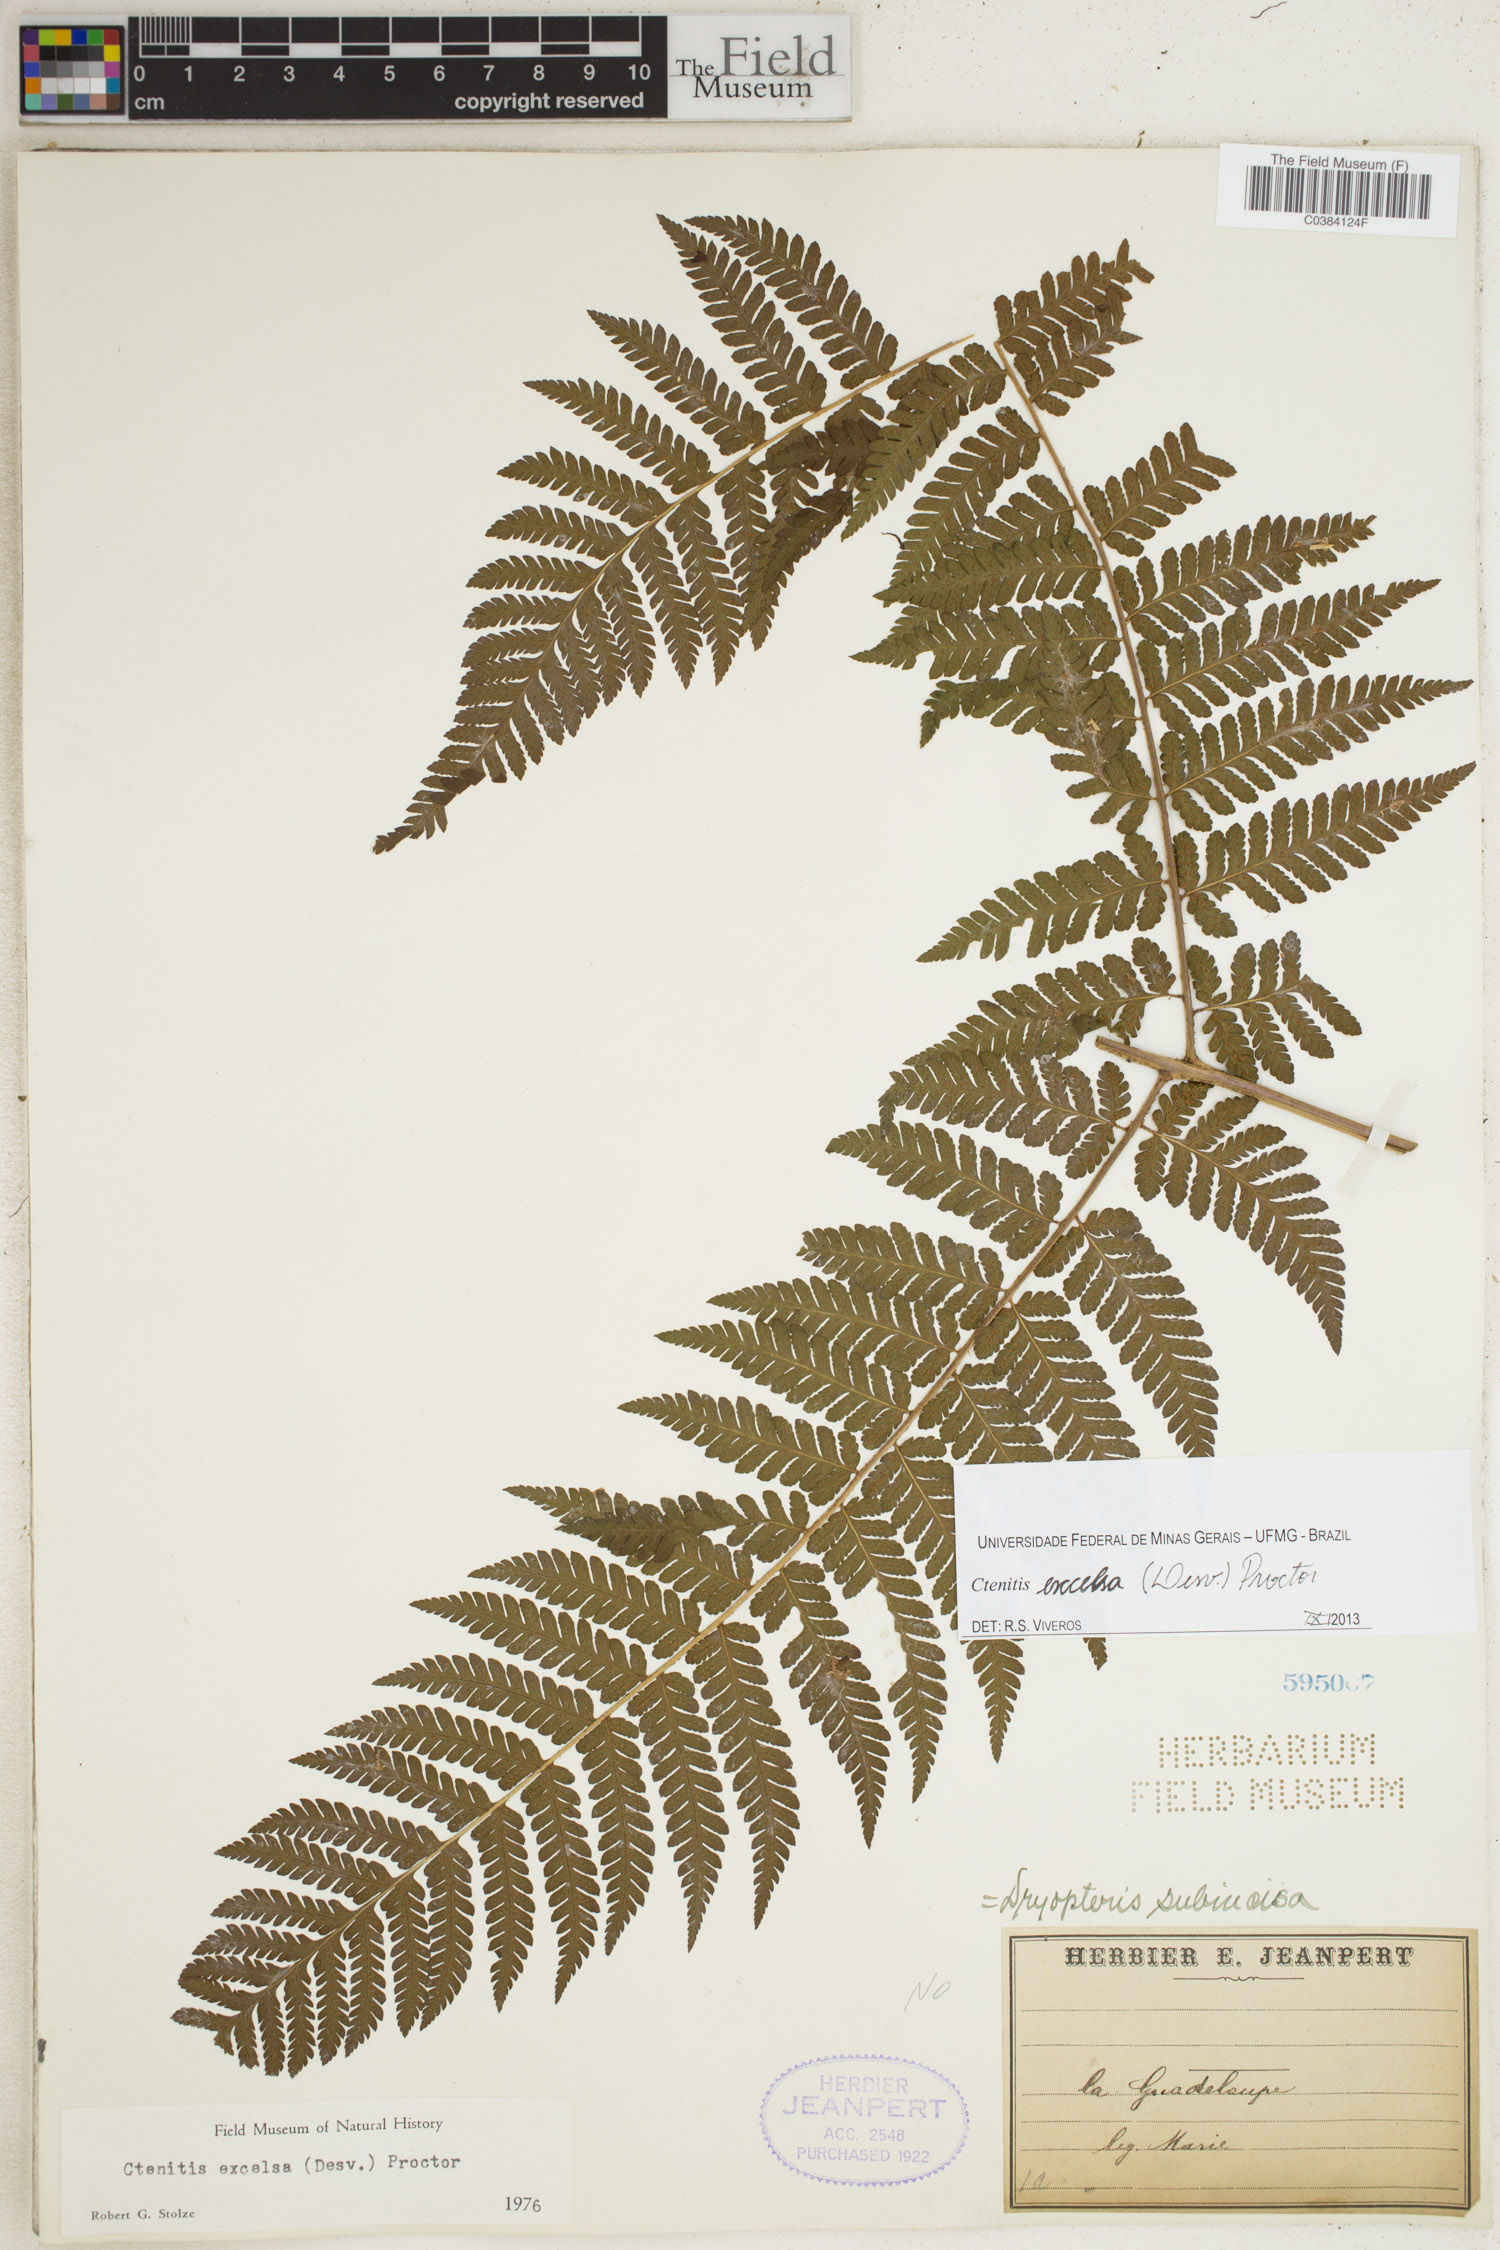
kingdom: Plantae
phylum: Tracheophyta
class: Polypodiopsida
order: Polypodiales
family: Dryopteridaceae
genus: Ctenitis
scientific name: Ctenitis excelsa
